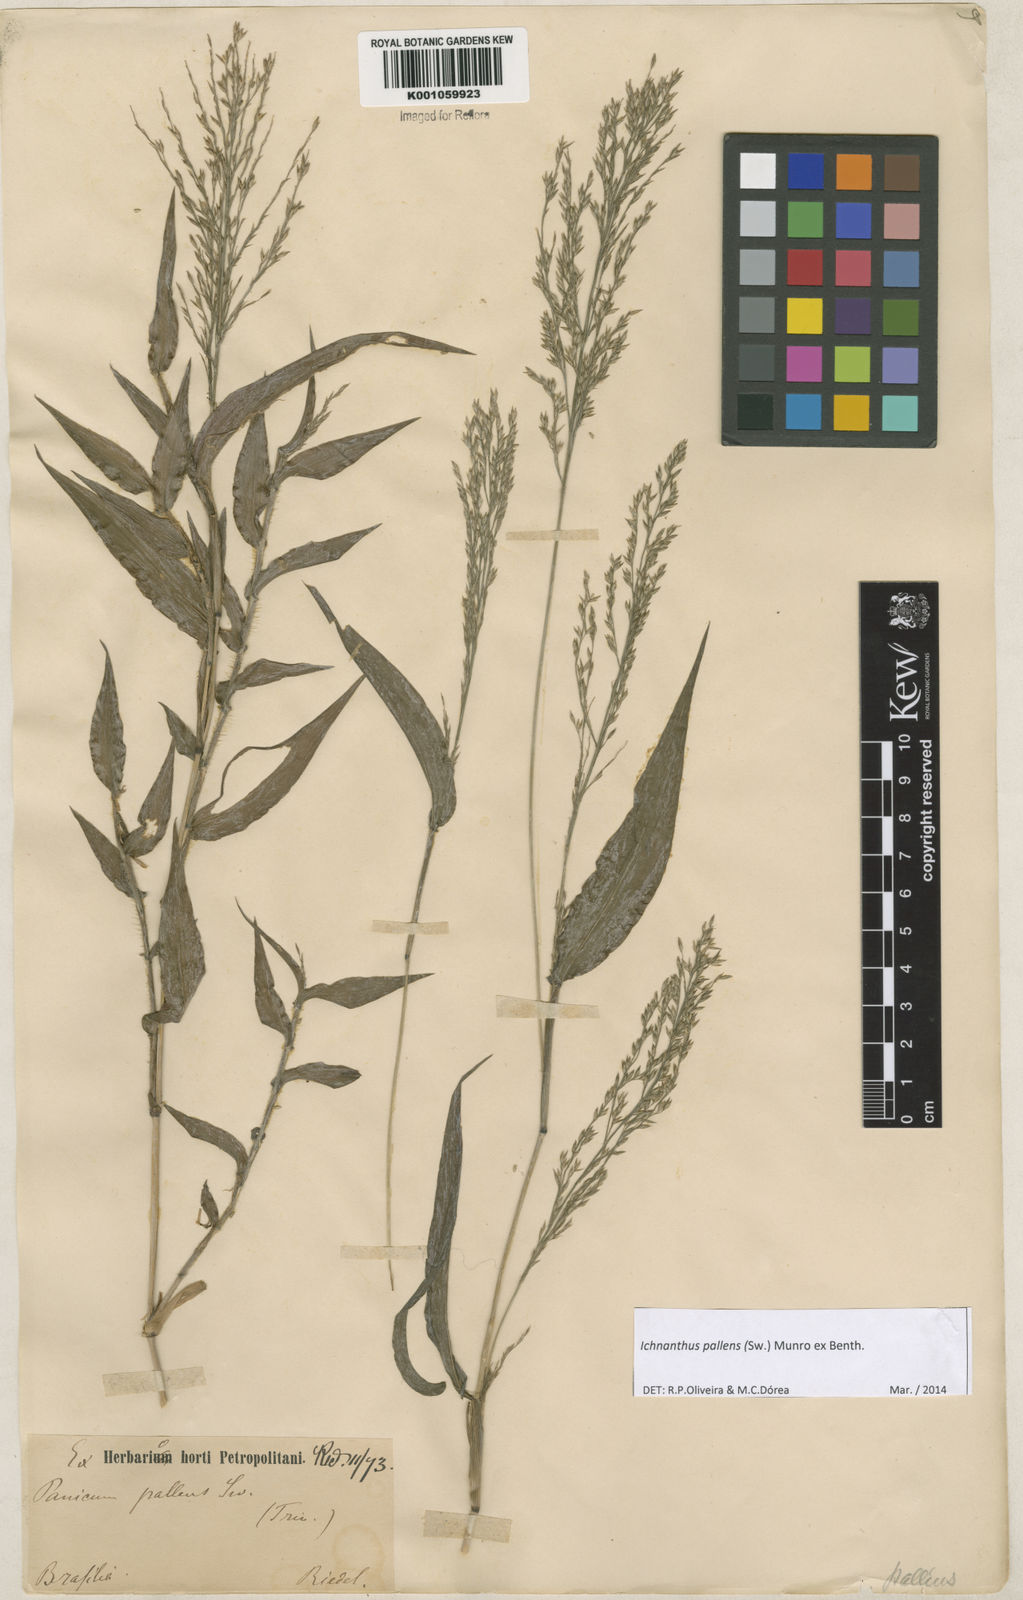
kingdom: Plantae
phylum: Tracheophyta
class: Liliopsida
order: Poales
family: Poaceae
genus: Ichnanthus
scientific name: Ichnanthus pallens
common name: Water grass
